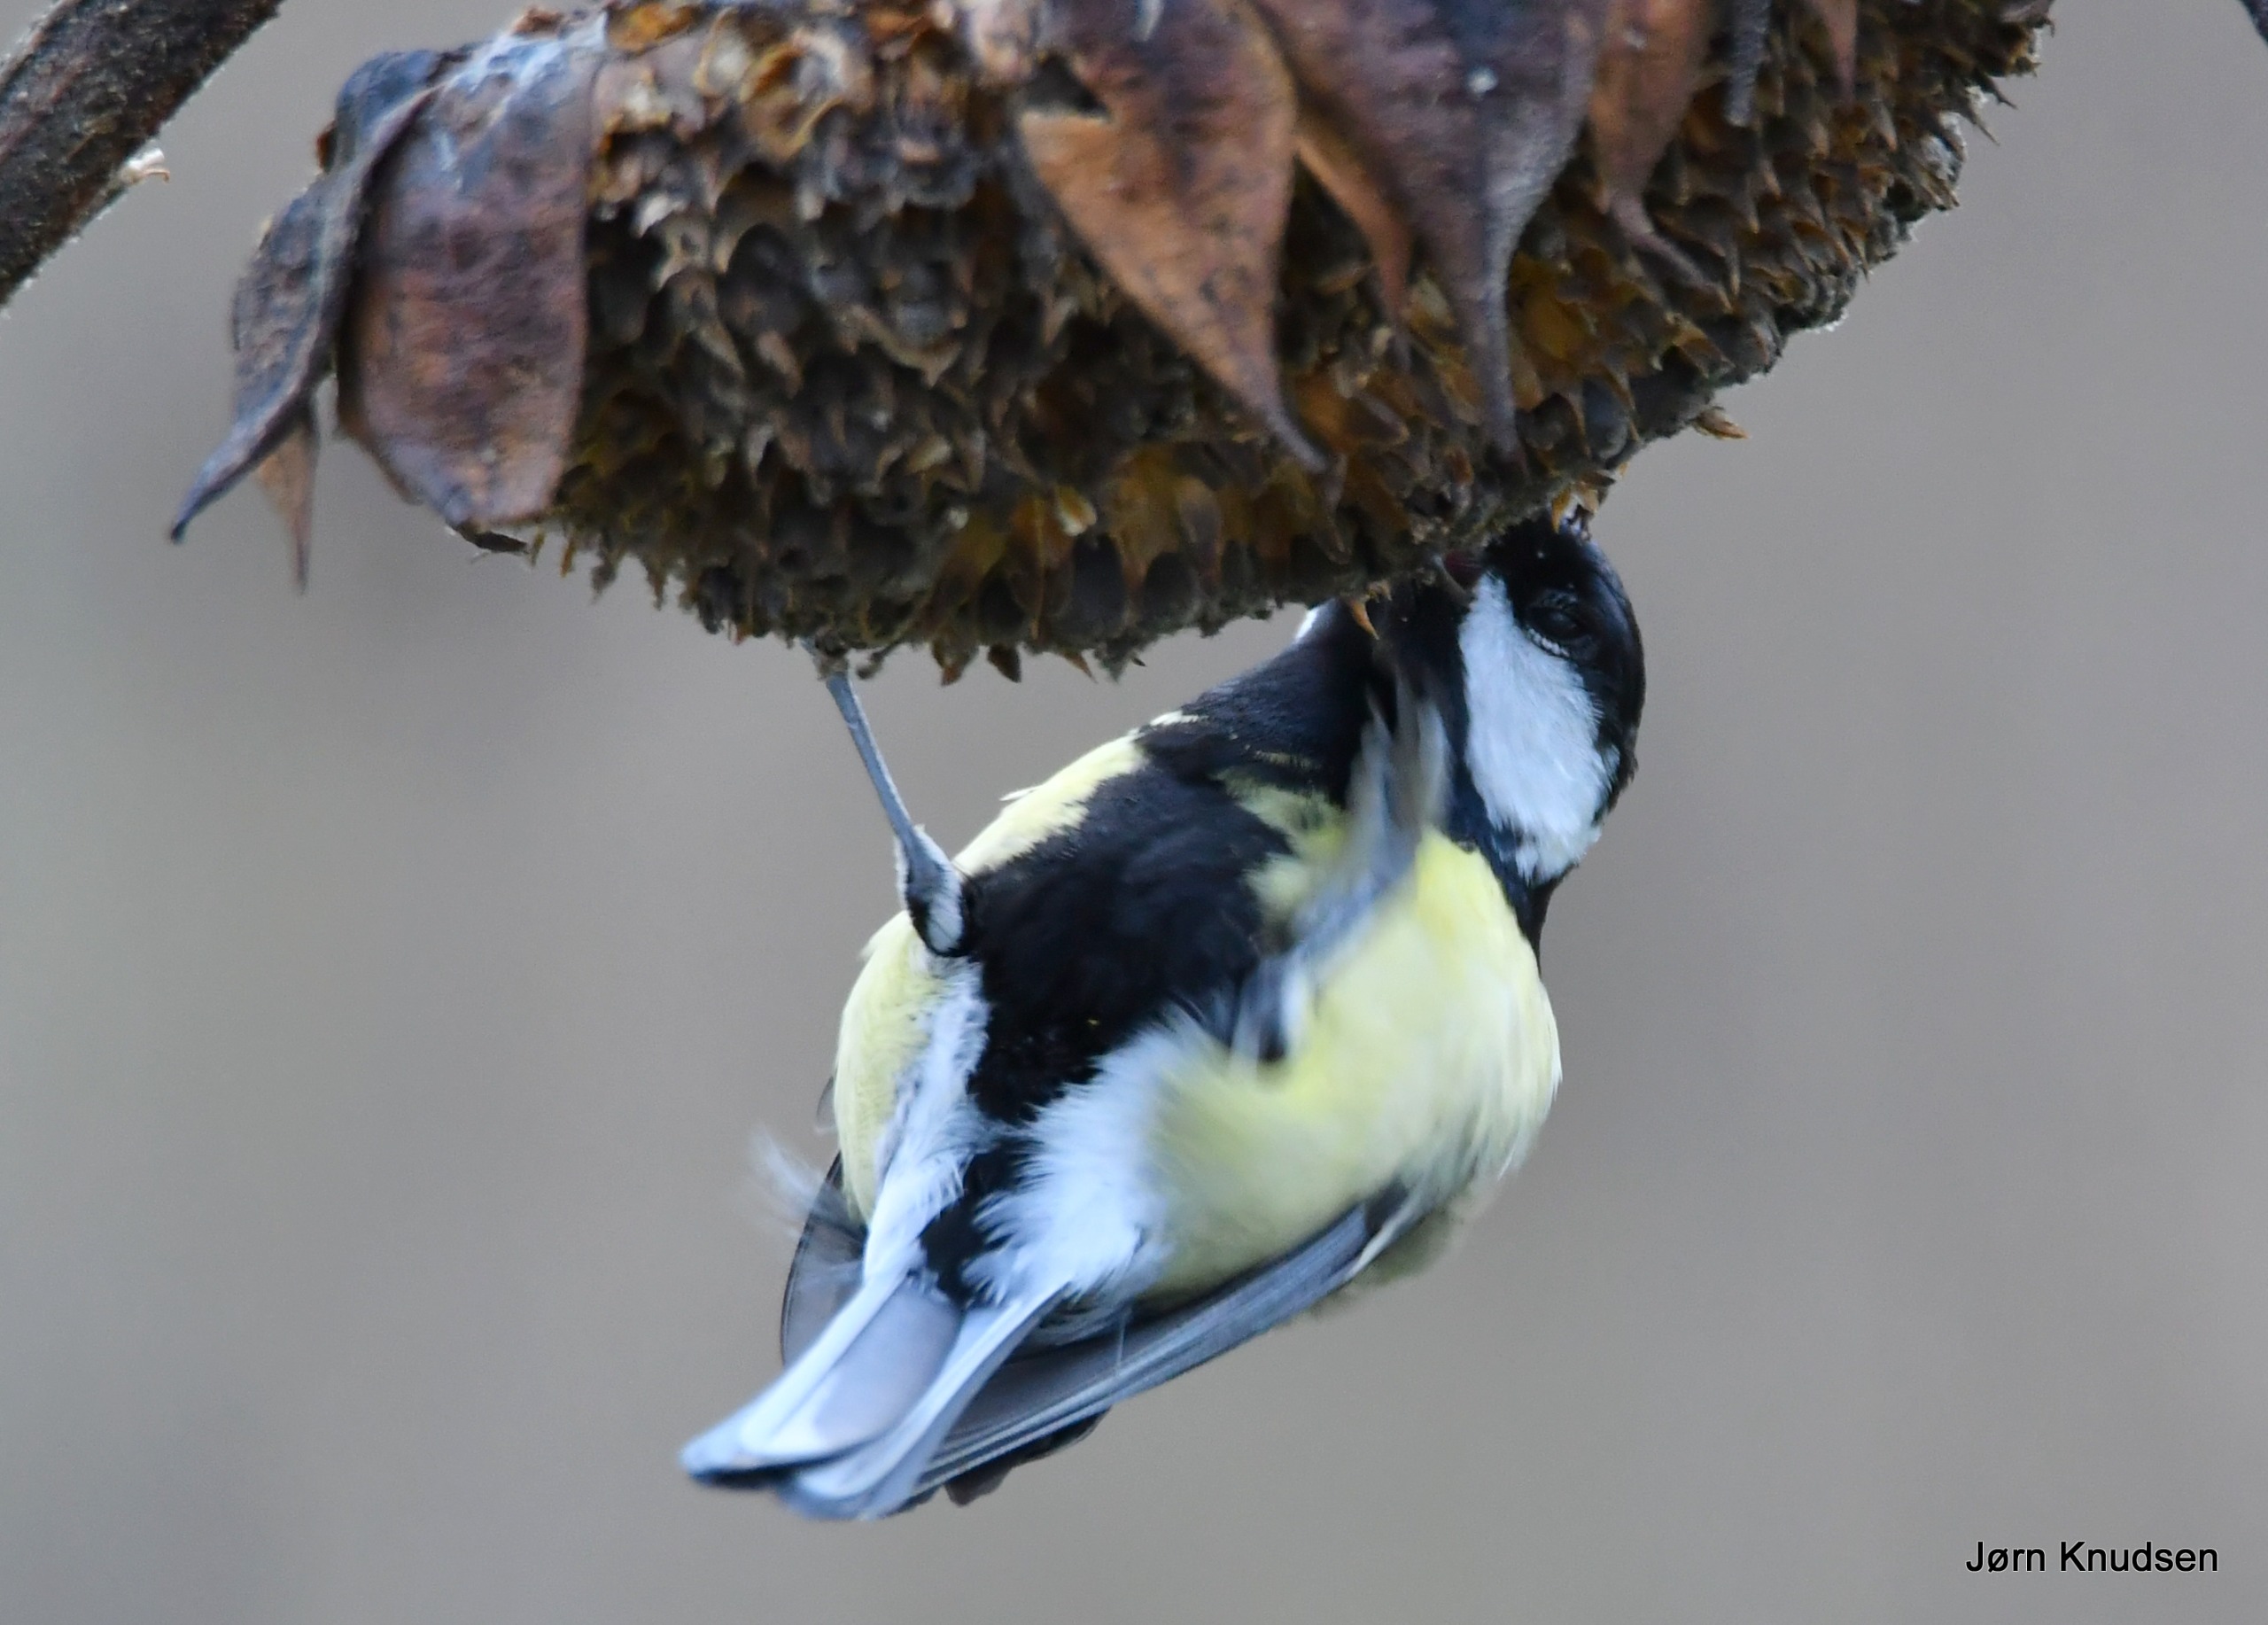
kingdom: Animalia
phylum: Chordata
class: Aves
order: Passeriformes
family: Paridae
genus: Parus
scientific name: Parus major
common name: Musvit
